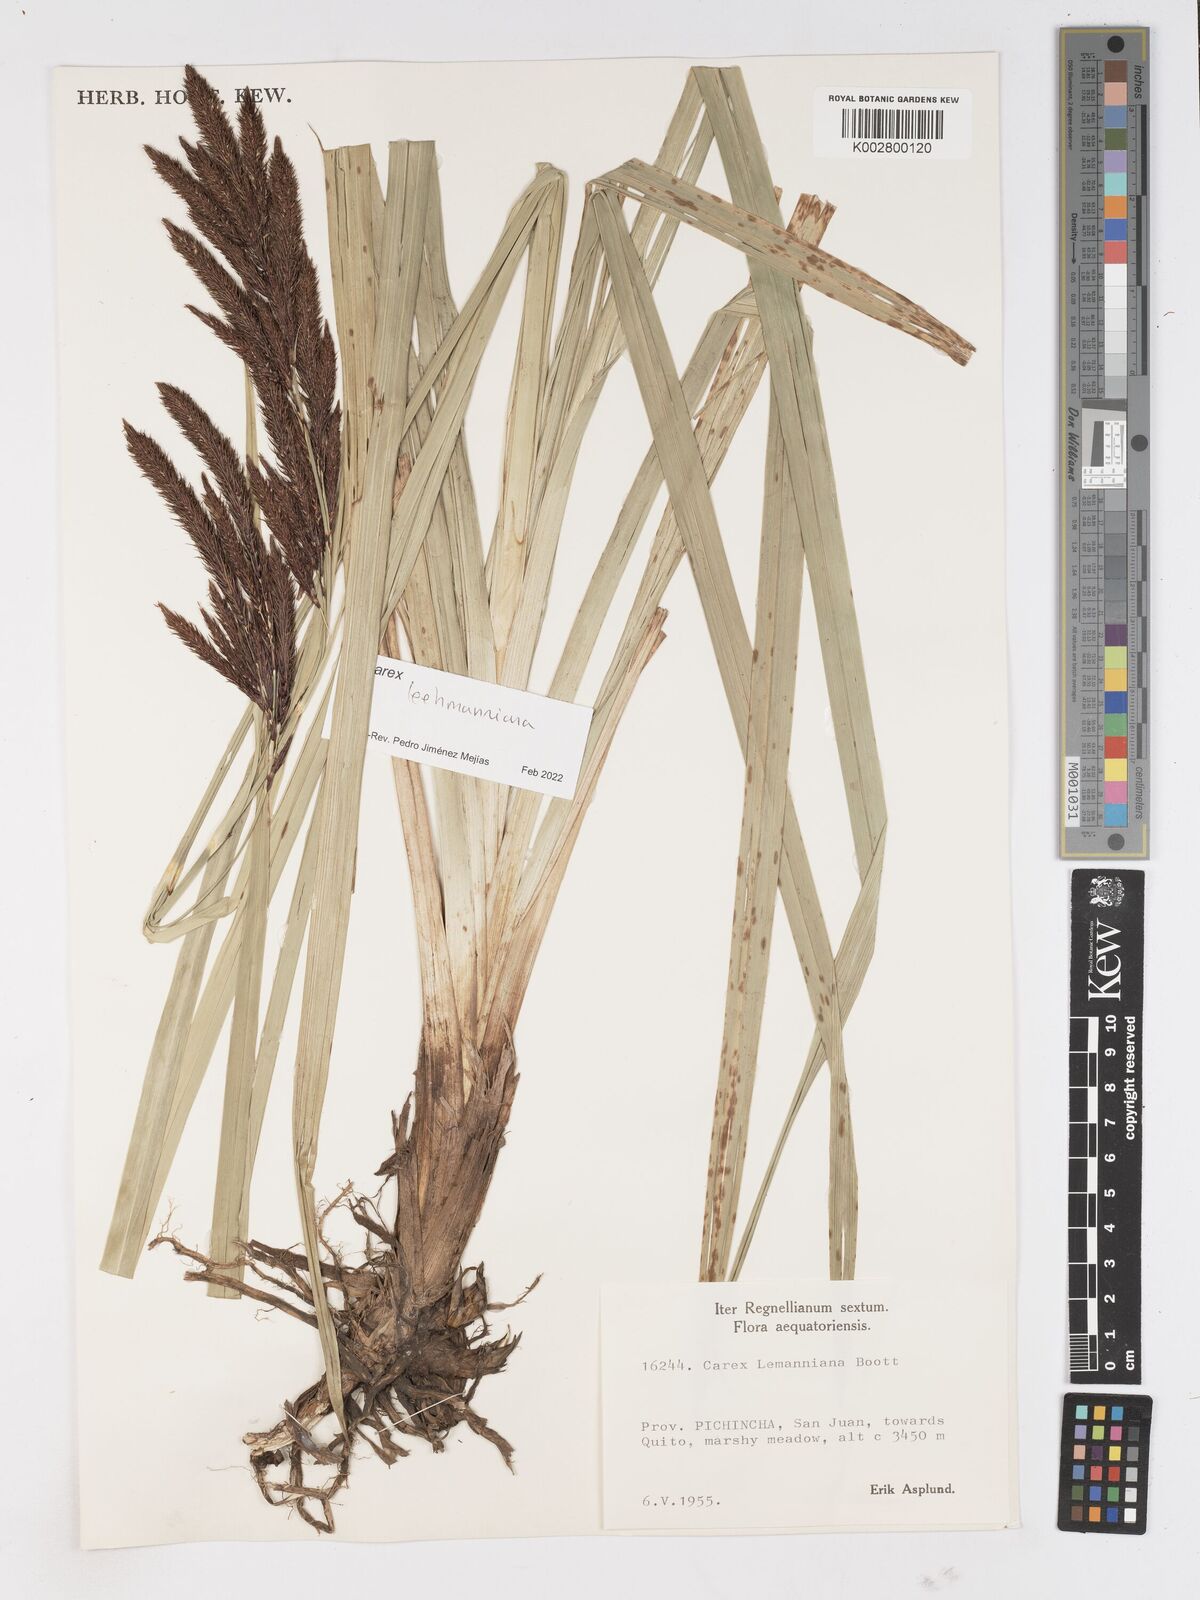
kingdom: Plantae
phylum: Tracheophyta
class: Liliopsida
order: Poales
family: Cyperaceae
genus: Carex
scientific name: Carex lemanniana
